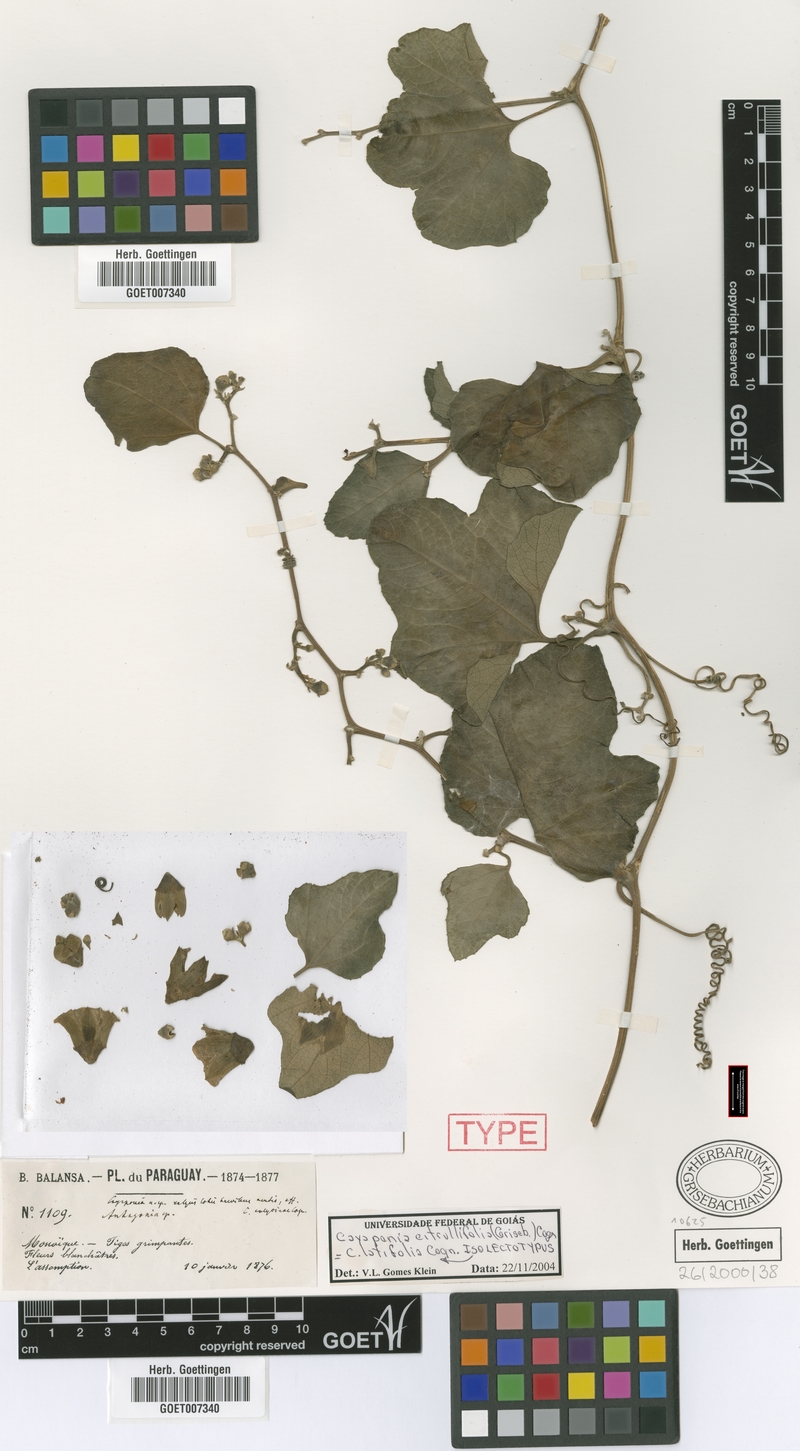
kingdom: Plantae
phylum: Tracheophyta
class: Magnoliopsida
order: Cucurbitales
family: Cucurbitaceae
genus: Cayaponia
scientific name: Cayaponia citrullifolia
